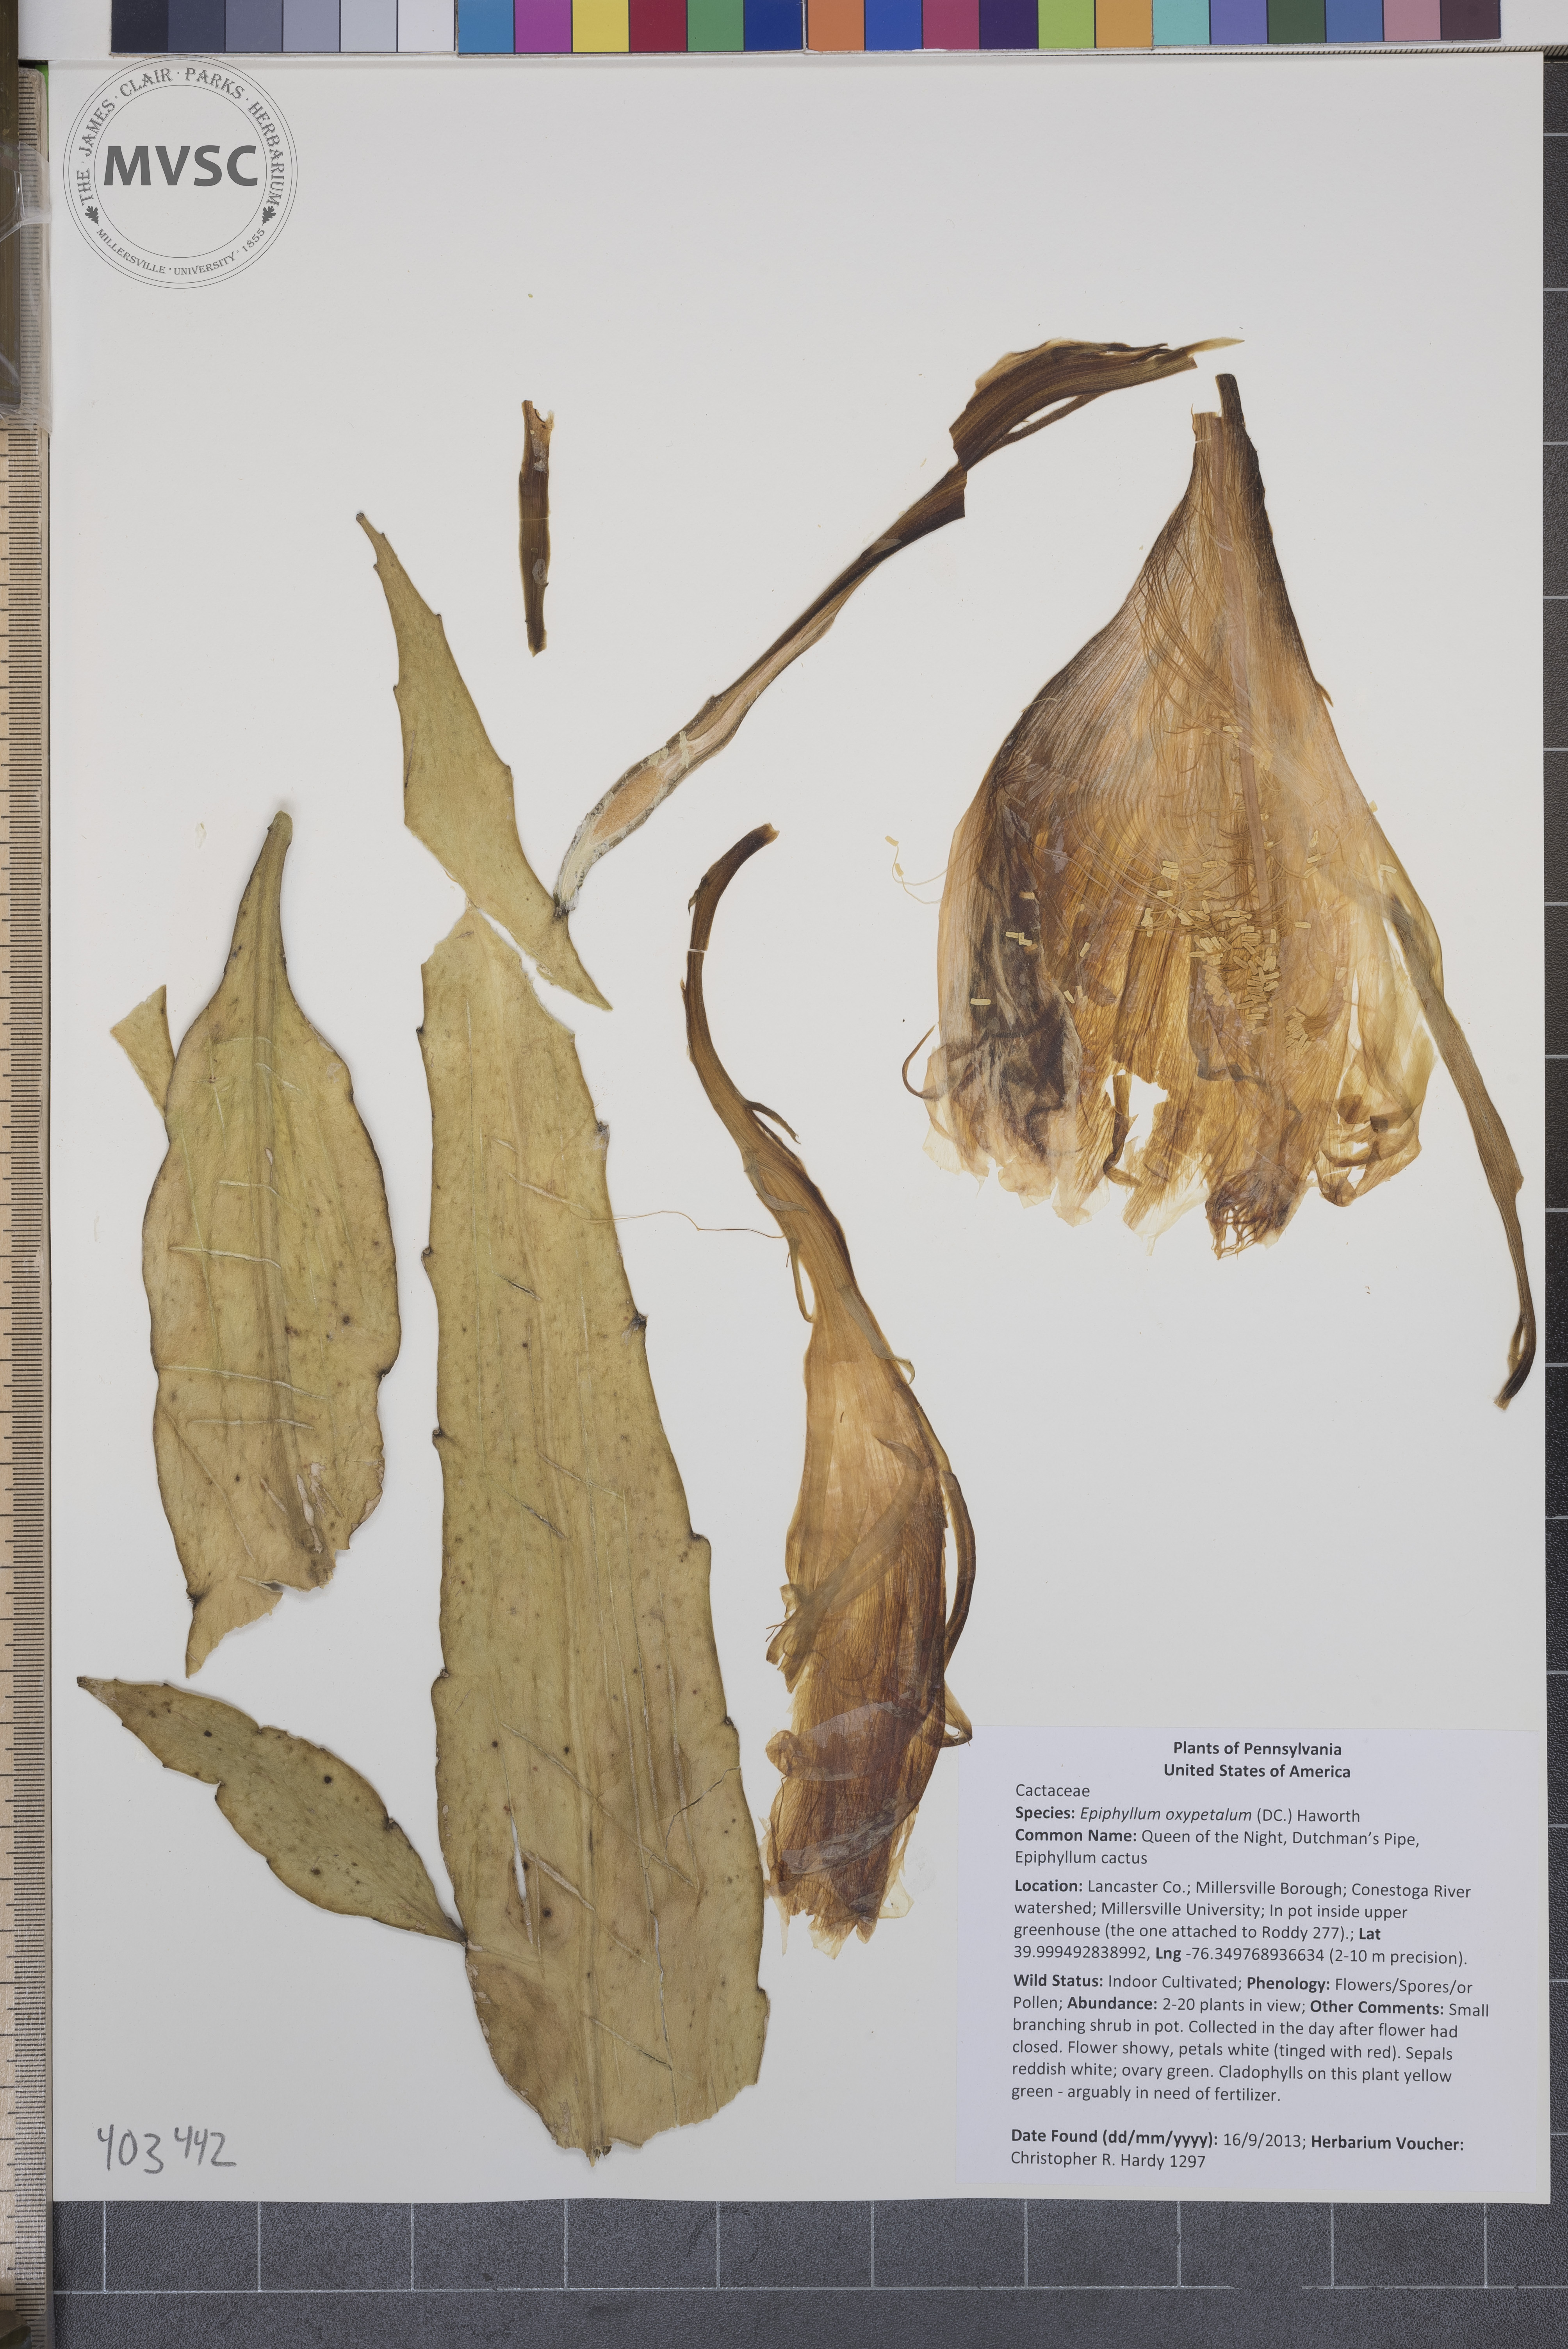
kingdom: Plantae
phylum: Tracheophyta
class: Magnoliopsida
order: Caryophyllales
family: Cactaceae
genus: Epiphyllum
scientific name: Epiphyllum oxypetalum
